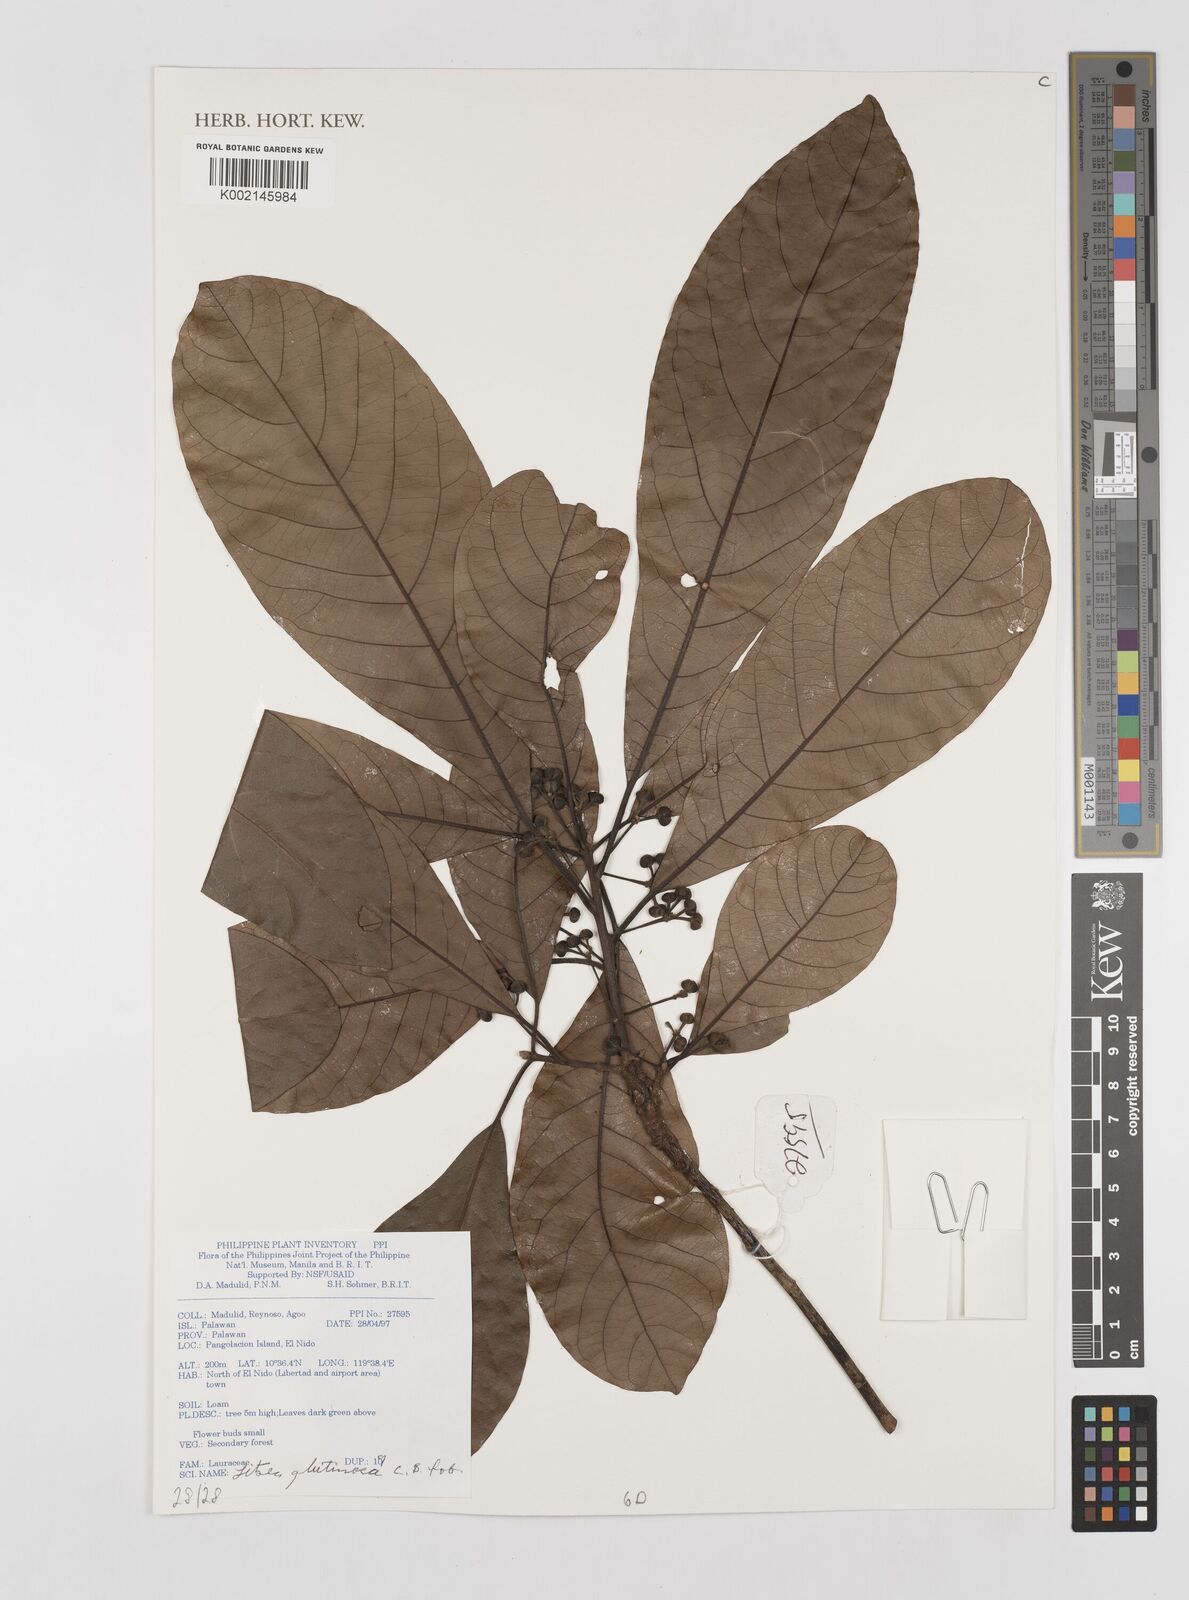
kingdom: Plantae
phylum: Tracheophyta
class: Magnoliopsida
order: Laurales
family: Lauraceae
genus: Litsea
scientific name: Litsea glutinosa
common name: Indian-laurel
